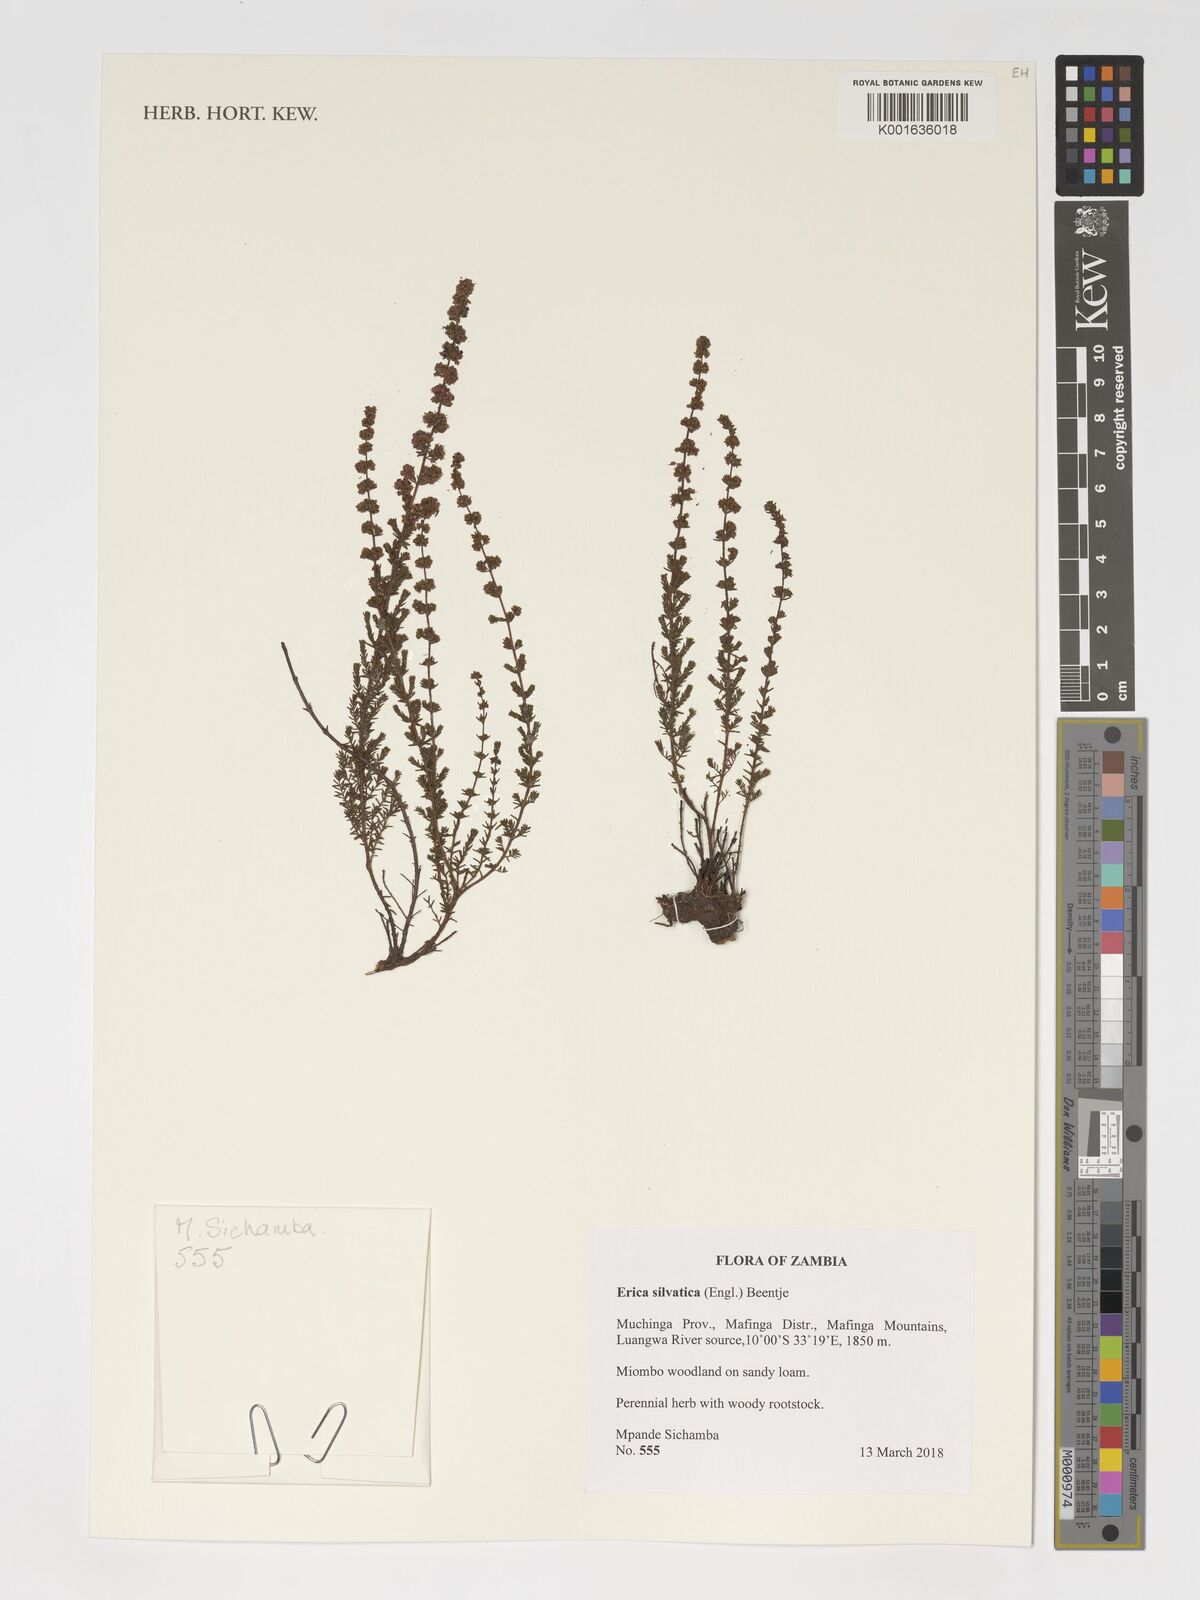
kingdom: Plantae
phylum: Tracheophyta
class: Magnoliopsida
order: Ericales
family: Ericaceae
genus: Erica
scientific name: Erica silvatica
